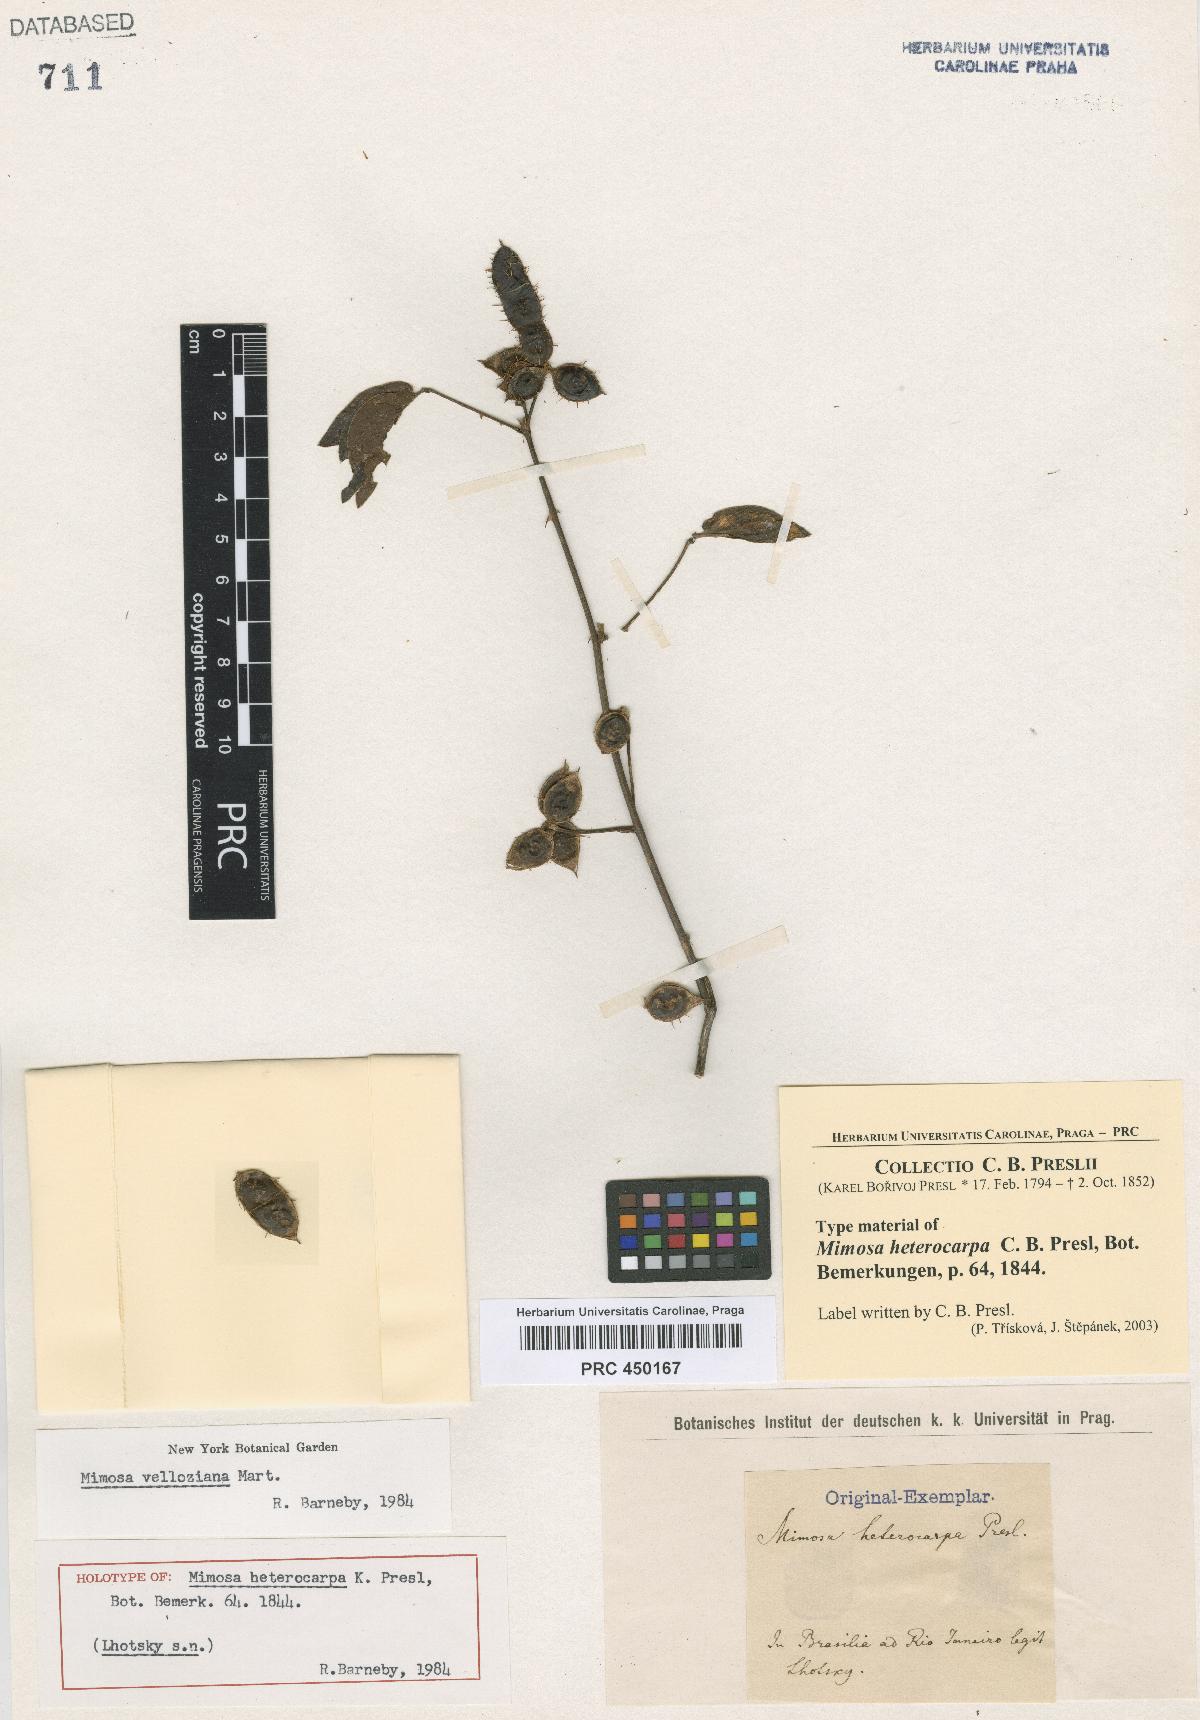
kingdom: Plantae
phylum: Tracheophyta
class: Magnoliopsida
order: Fabales
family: Fabaceae
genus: Mimosa
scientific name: Mimosa velloziana
